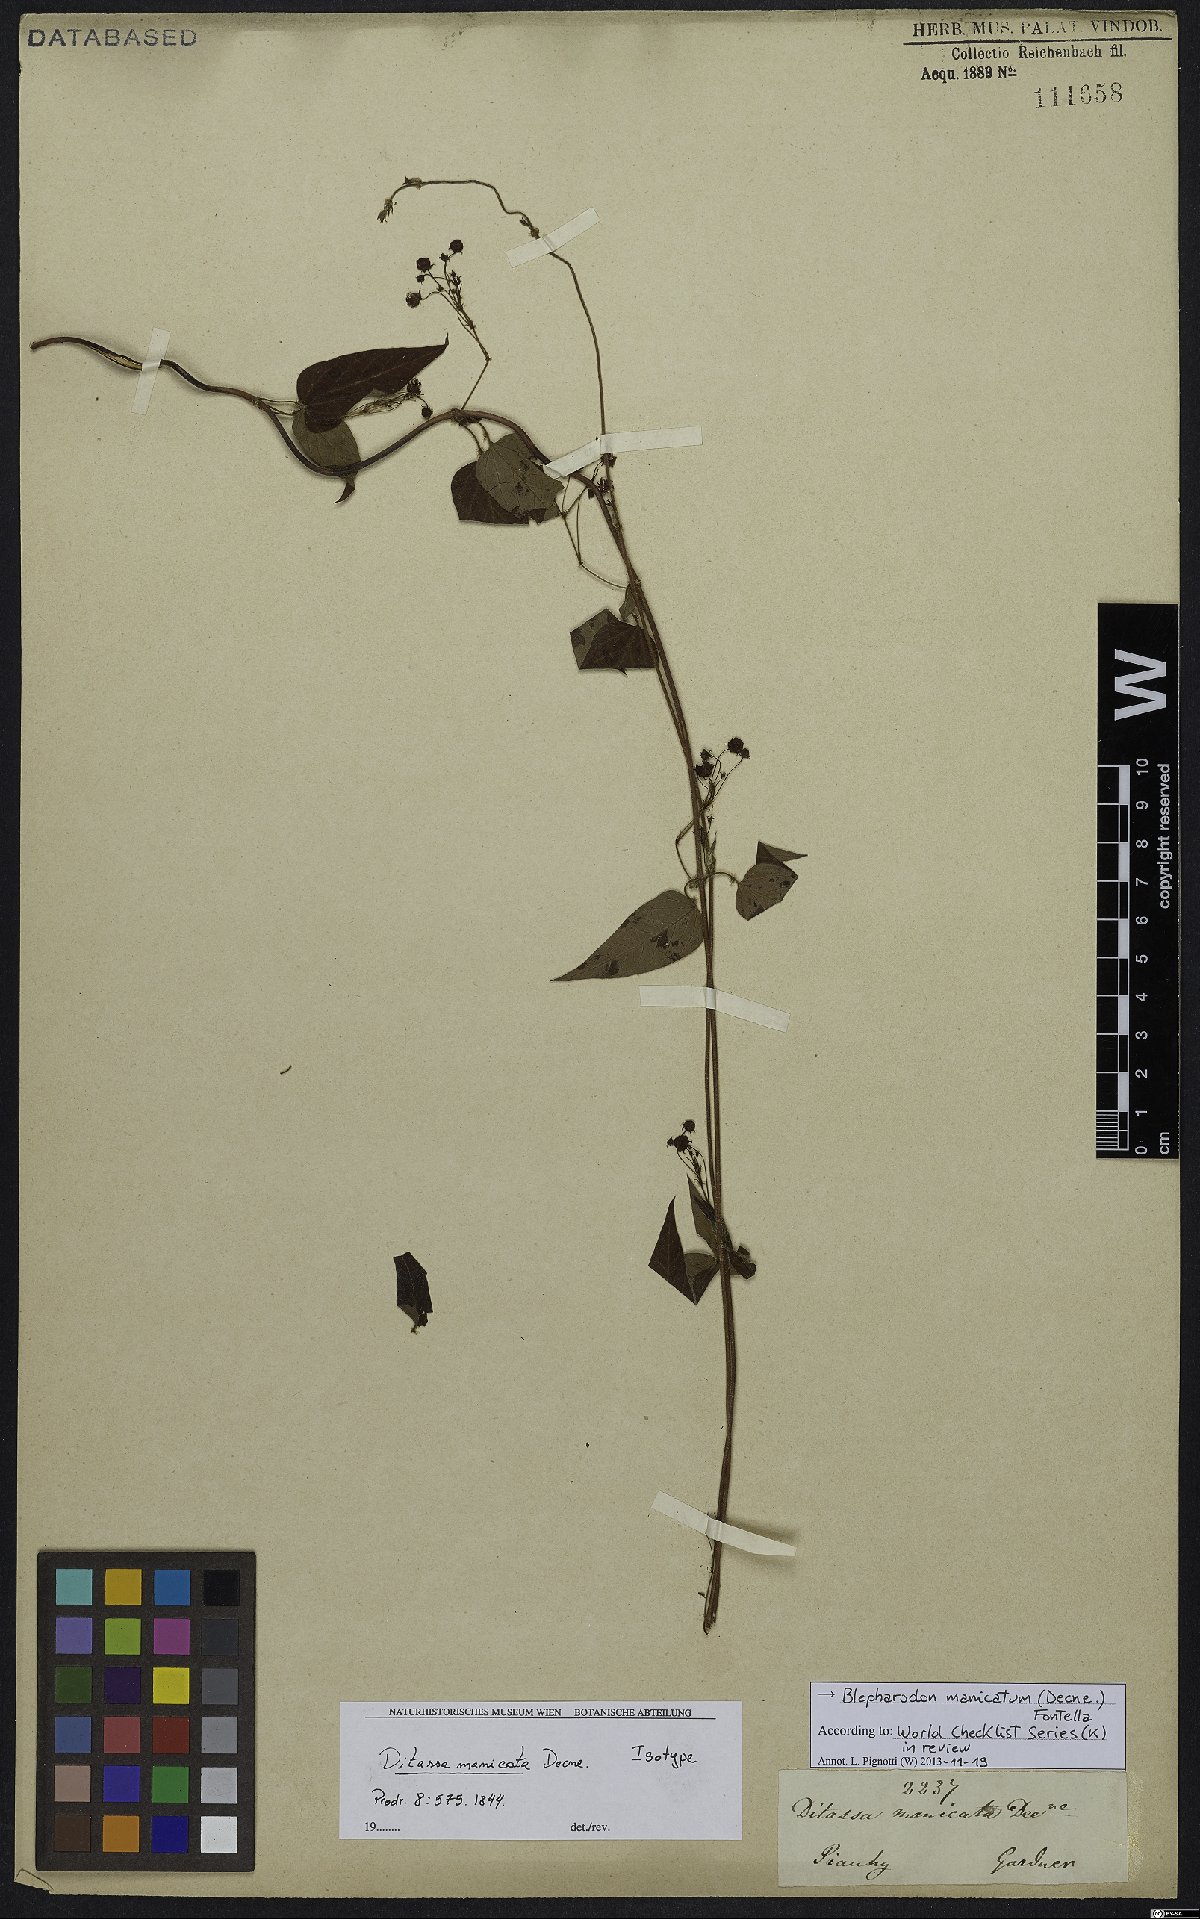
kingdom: Plantae
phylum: Tracheophyta
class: Magnoliopsida
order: Gentianales
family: Apocynaceae
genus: Blepharodon
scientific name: Blepharodon manicatum
